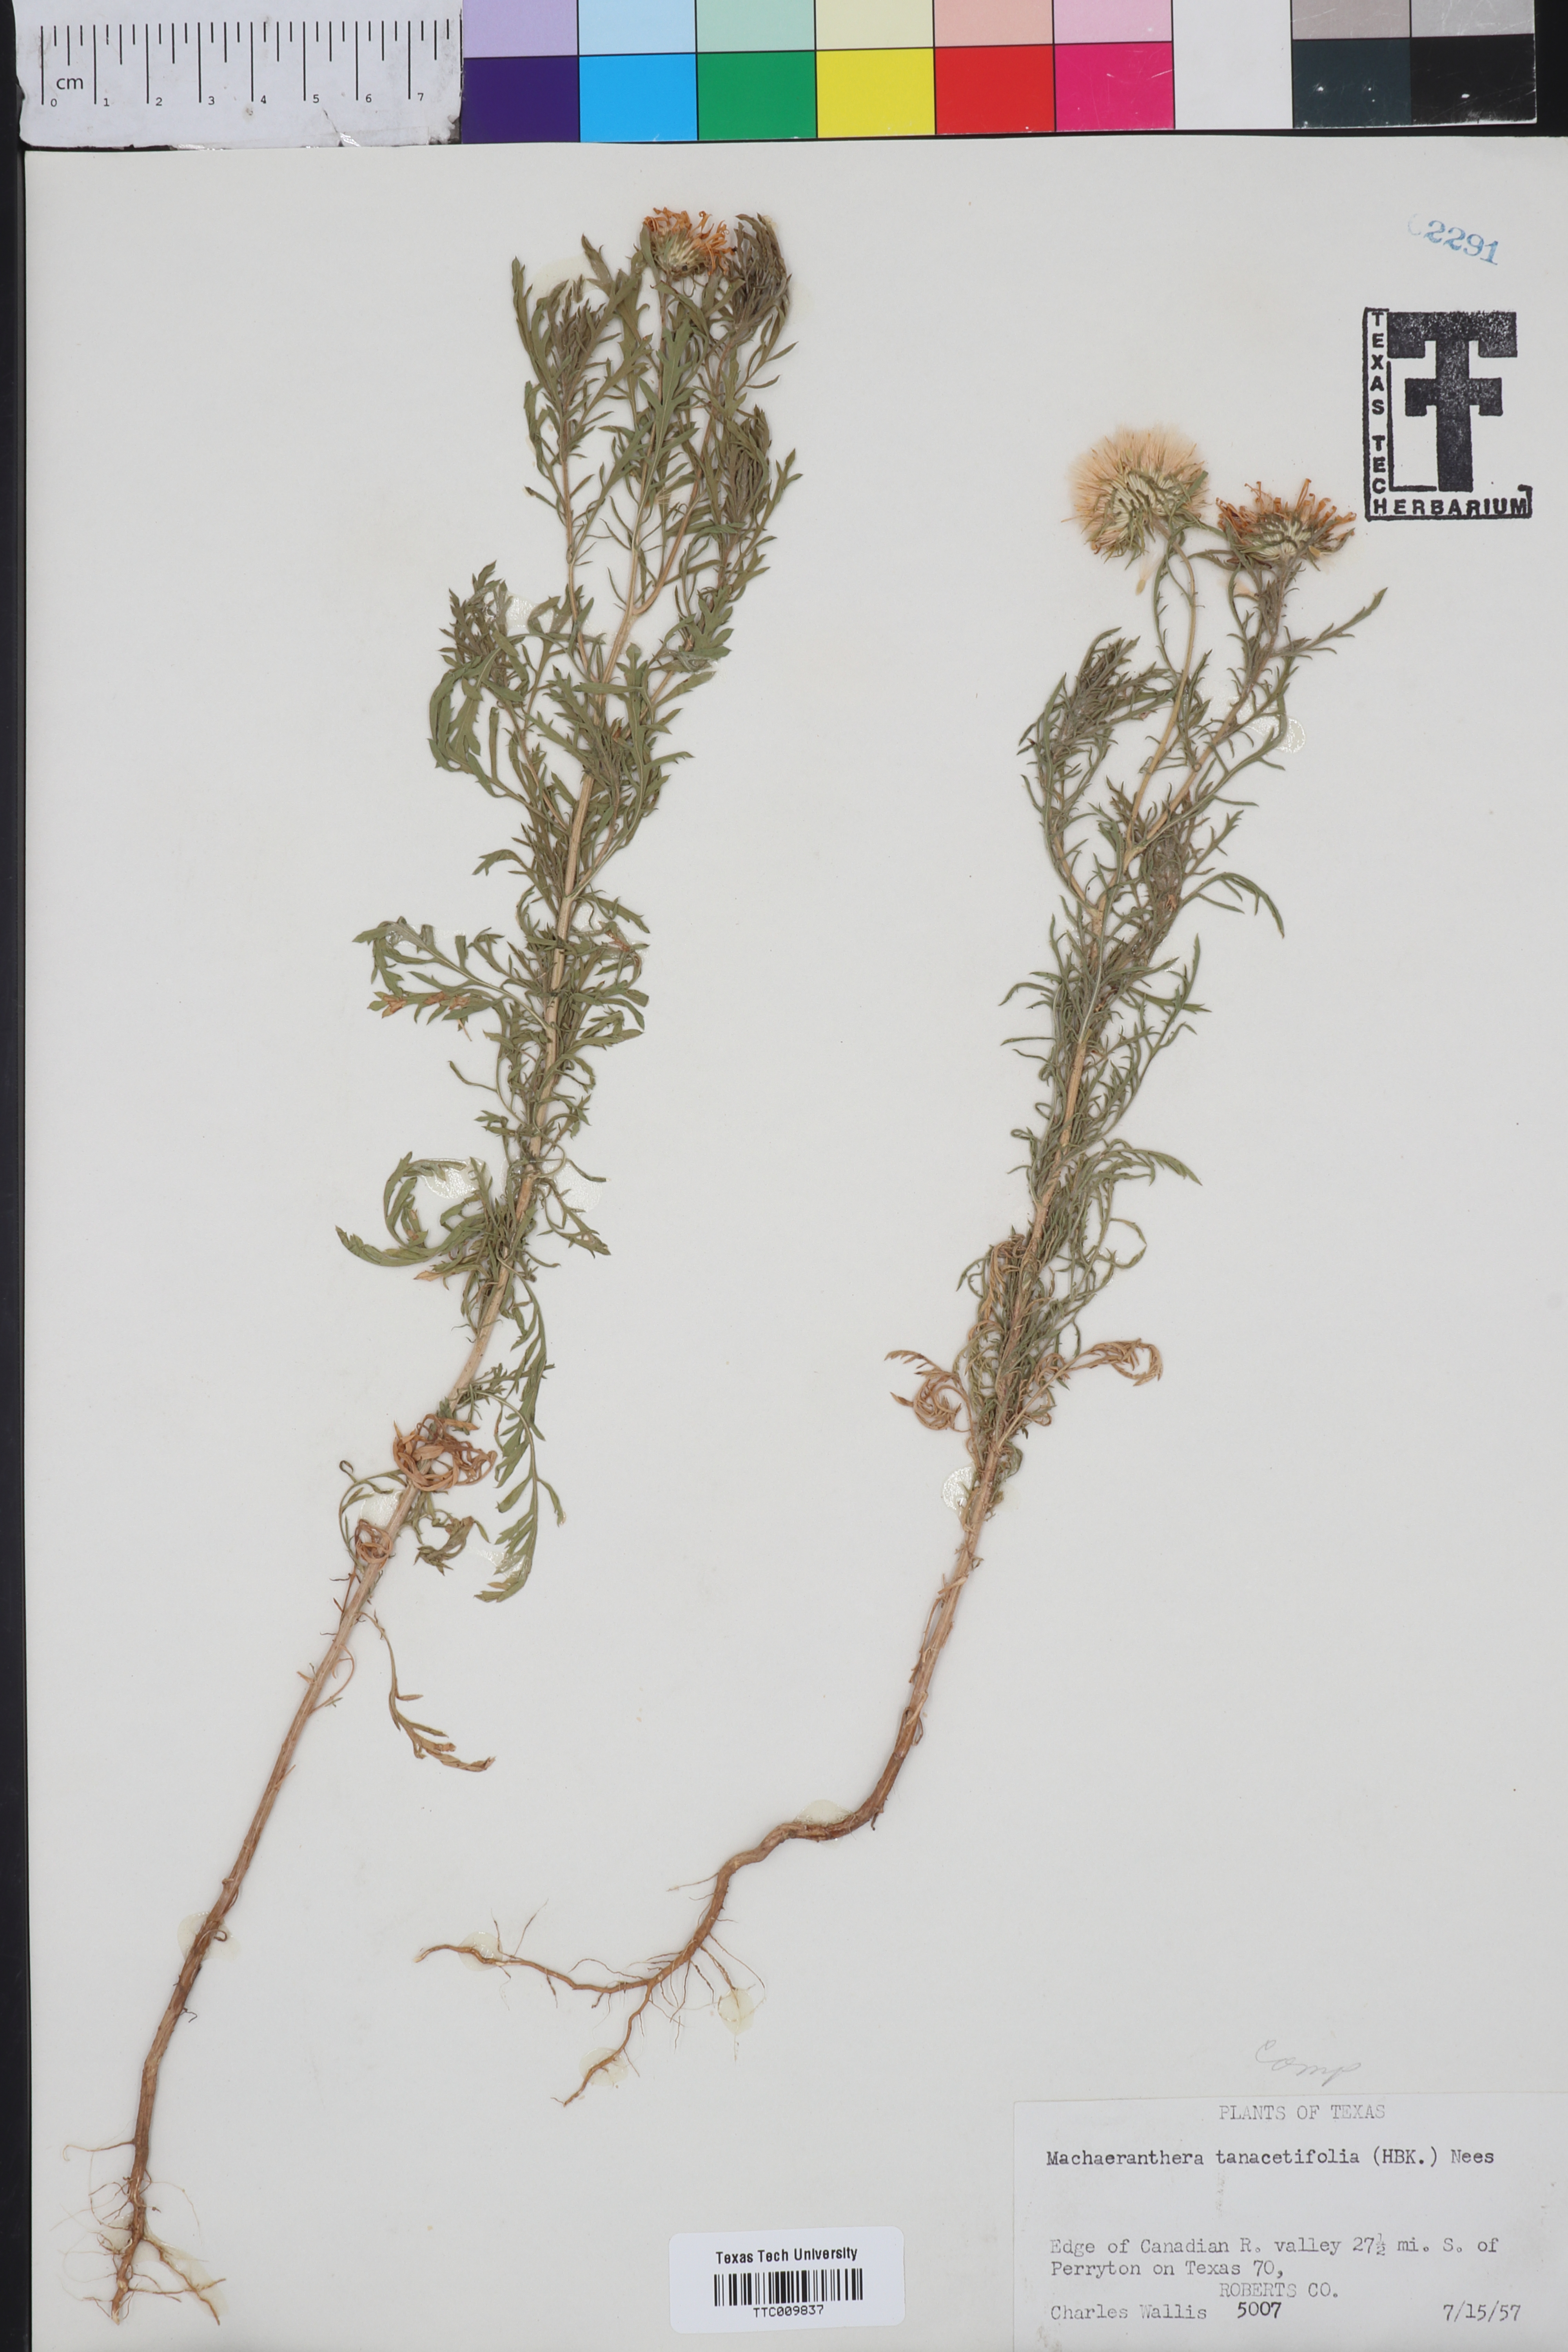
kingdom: Plantae
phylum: Tracheophyta
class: Magnoliopsida
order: Asterales
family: Asteraceae
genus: Machaeranthera
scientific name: Machaeranthera tanacetifolia
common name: Tansy-aster
